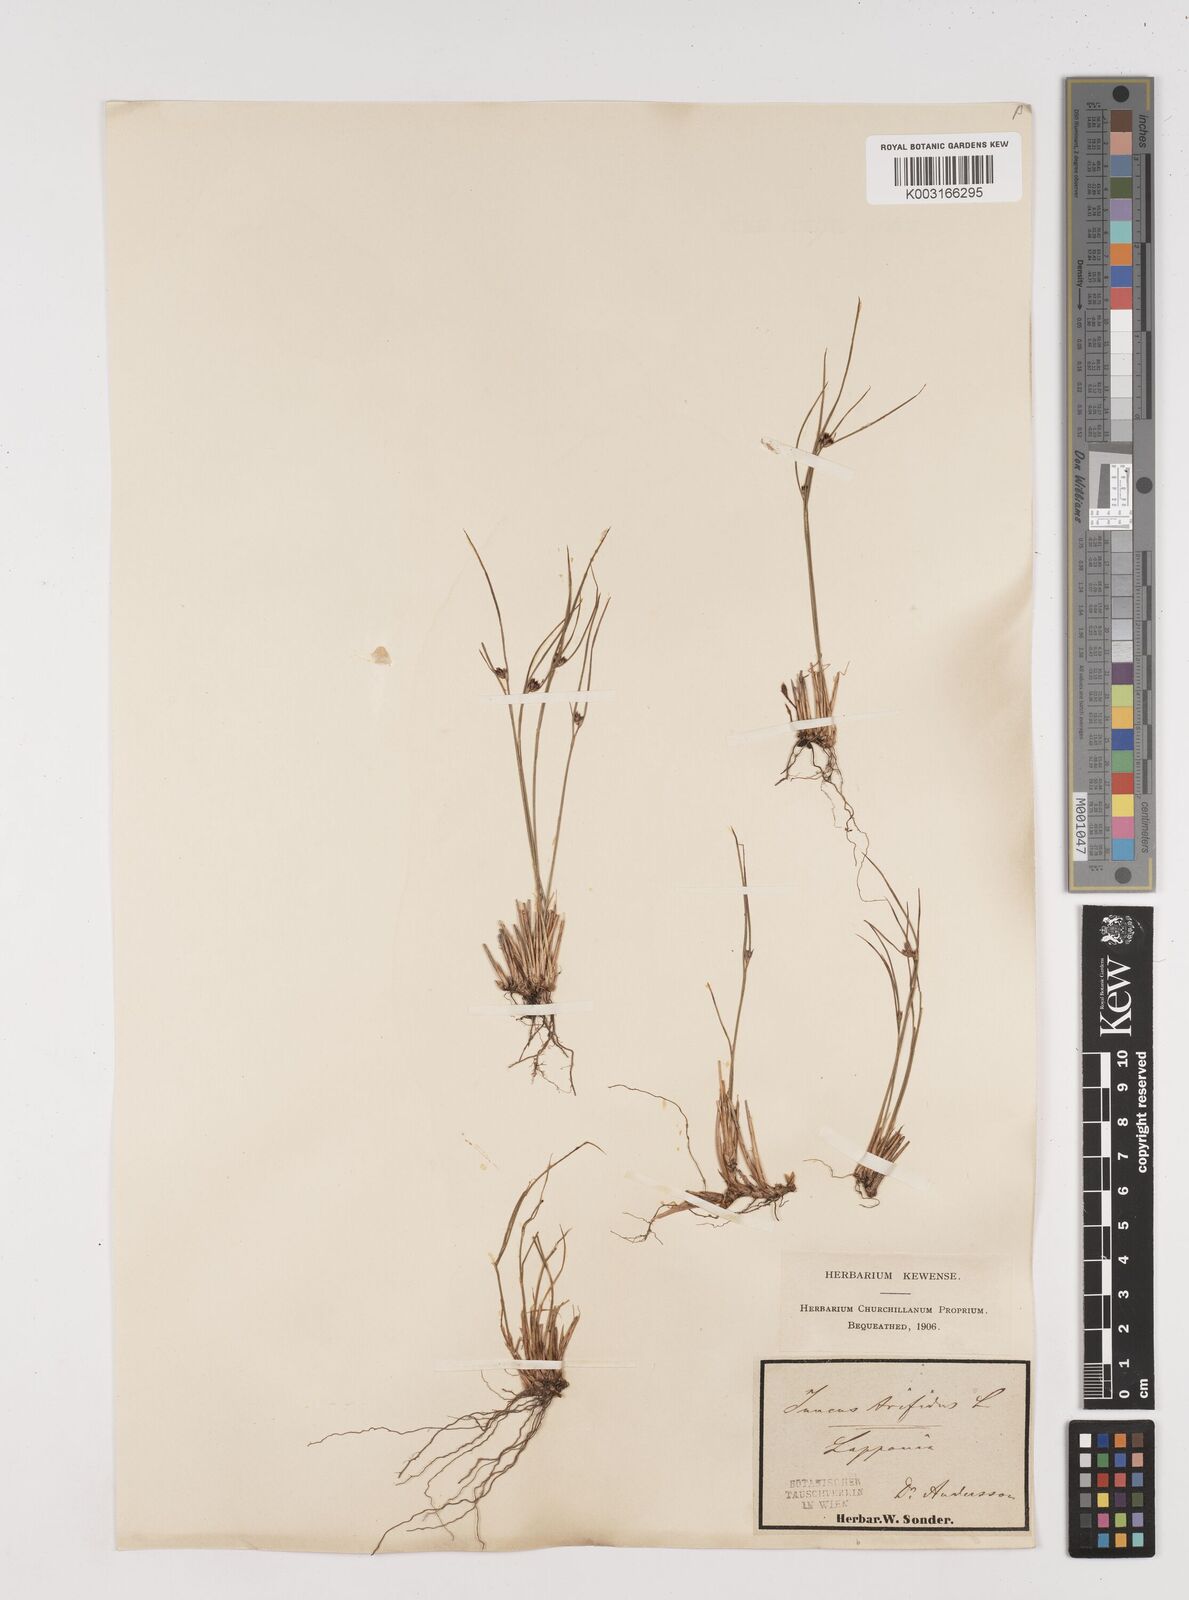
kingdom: Plantae
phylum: Tracheophyta
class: Liliopsida
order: Poales
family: Juncaceae
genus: Oreojuncus
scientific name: Oreojuncus trifidus
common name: Highland rush
